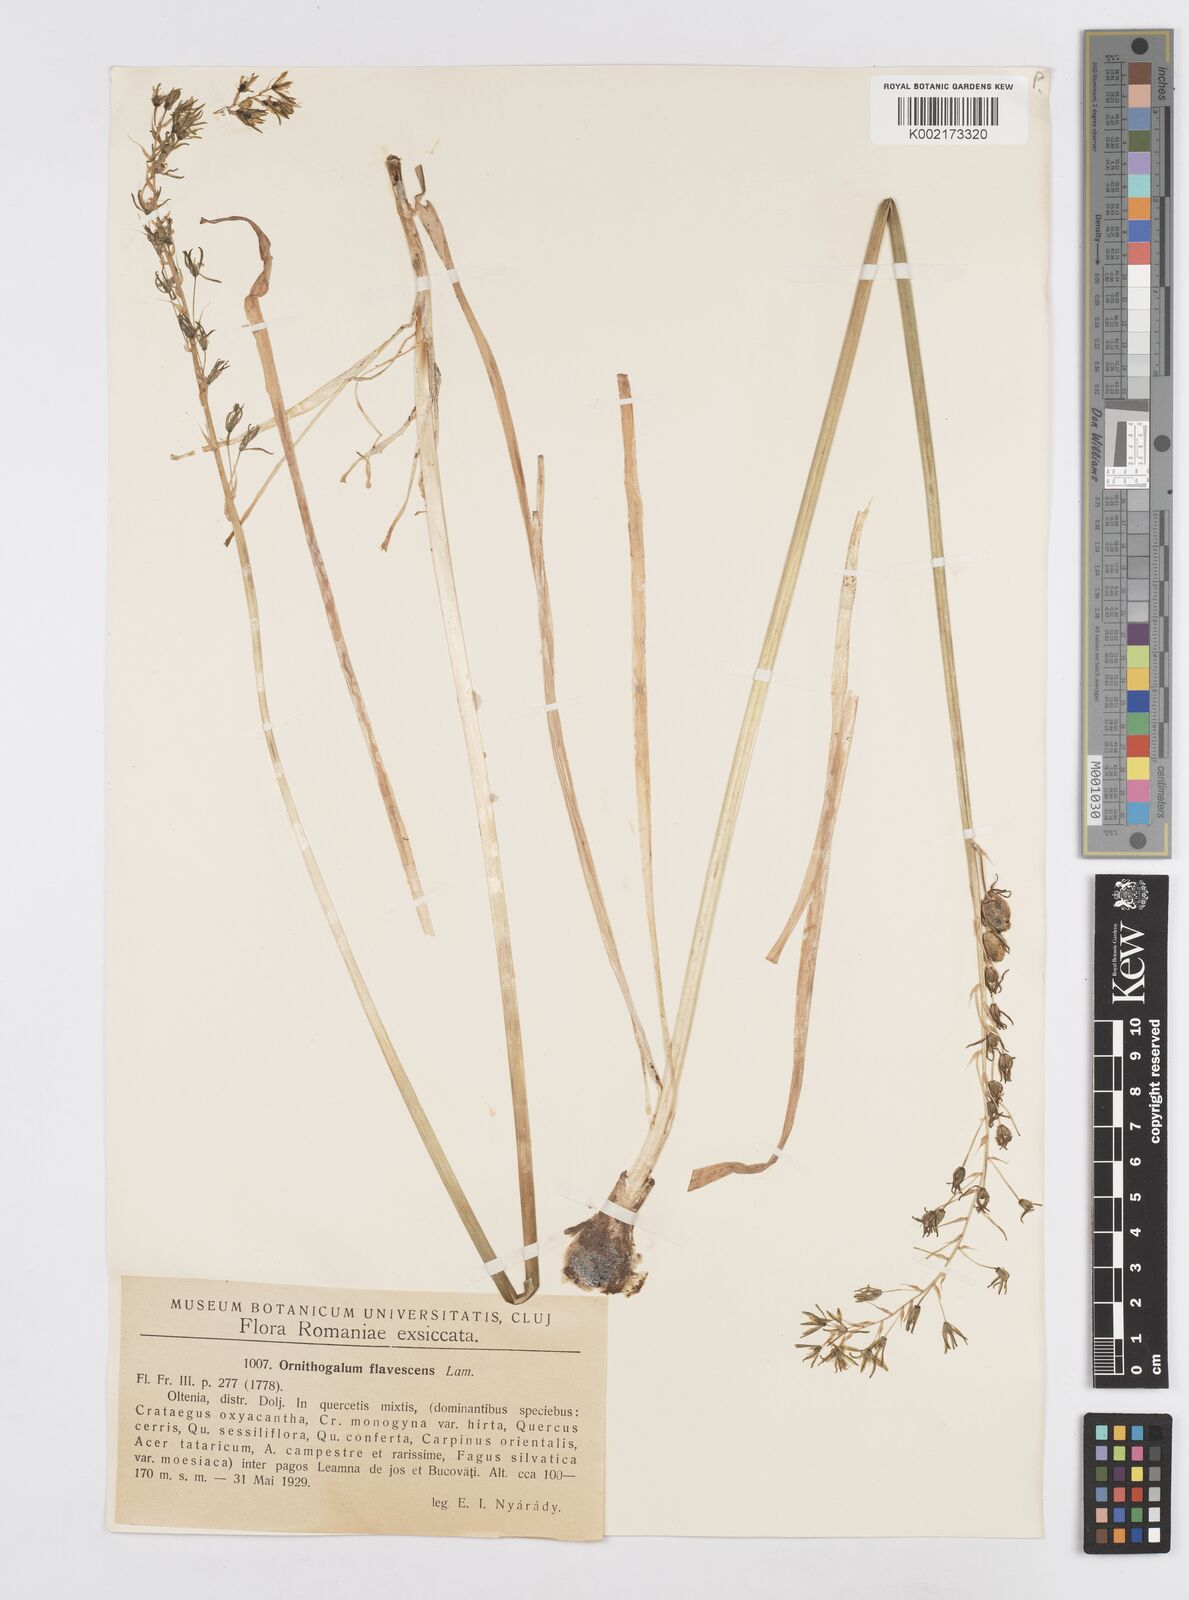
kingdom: Plantae
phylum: Tracheophyta
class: Liliopsida
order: Asparagales
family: Asparagaceae
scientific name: Asparagaceae
